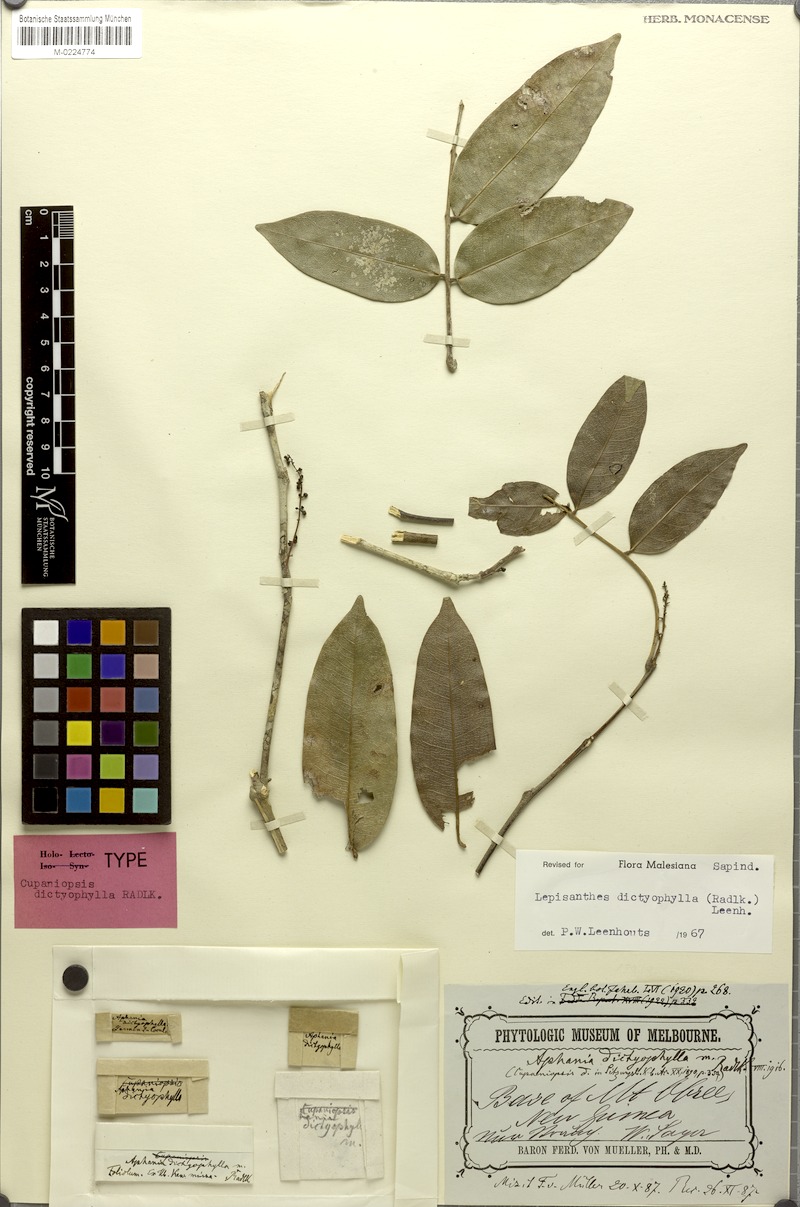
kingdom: Plantae
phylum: Tracheophyta
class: Magnoliopsida
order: Sapindales
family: Sapindaceae
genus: Lepisanthes
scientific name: Lepisanthes dictyophylla
